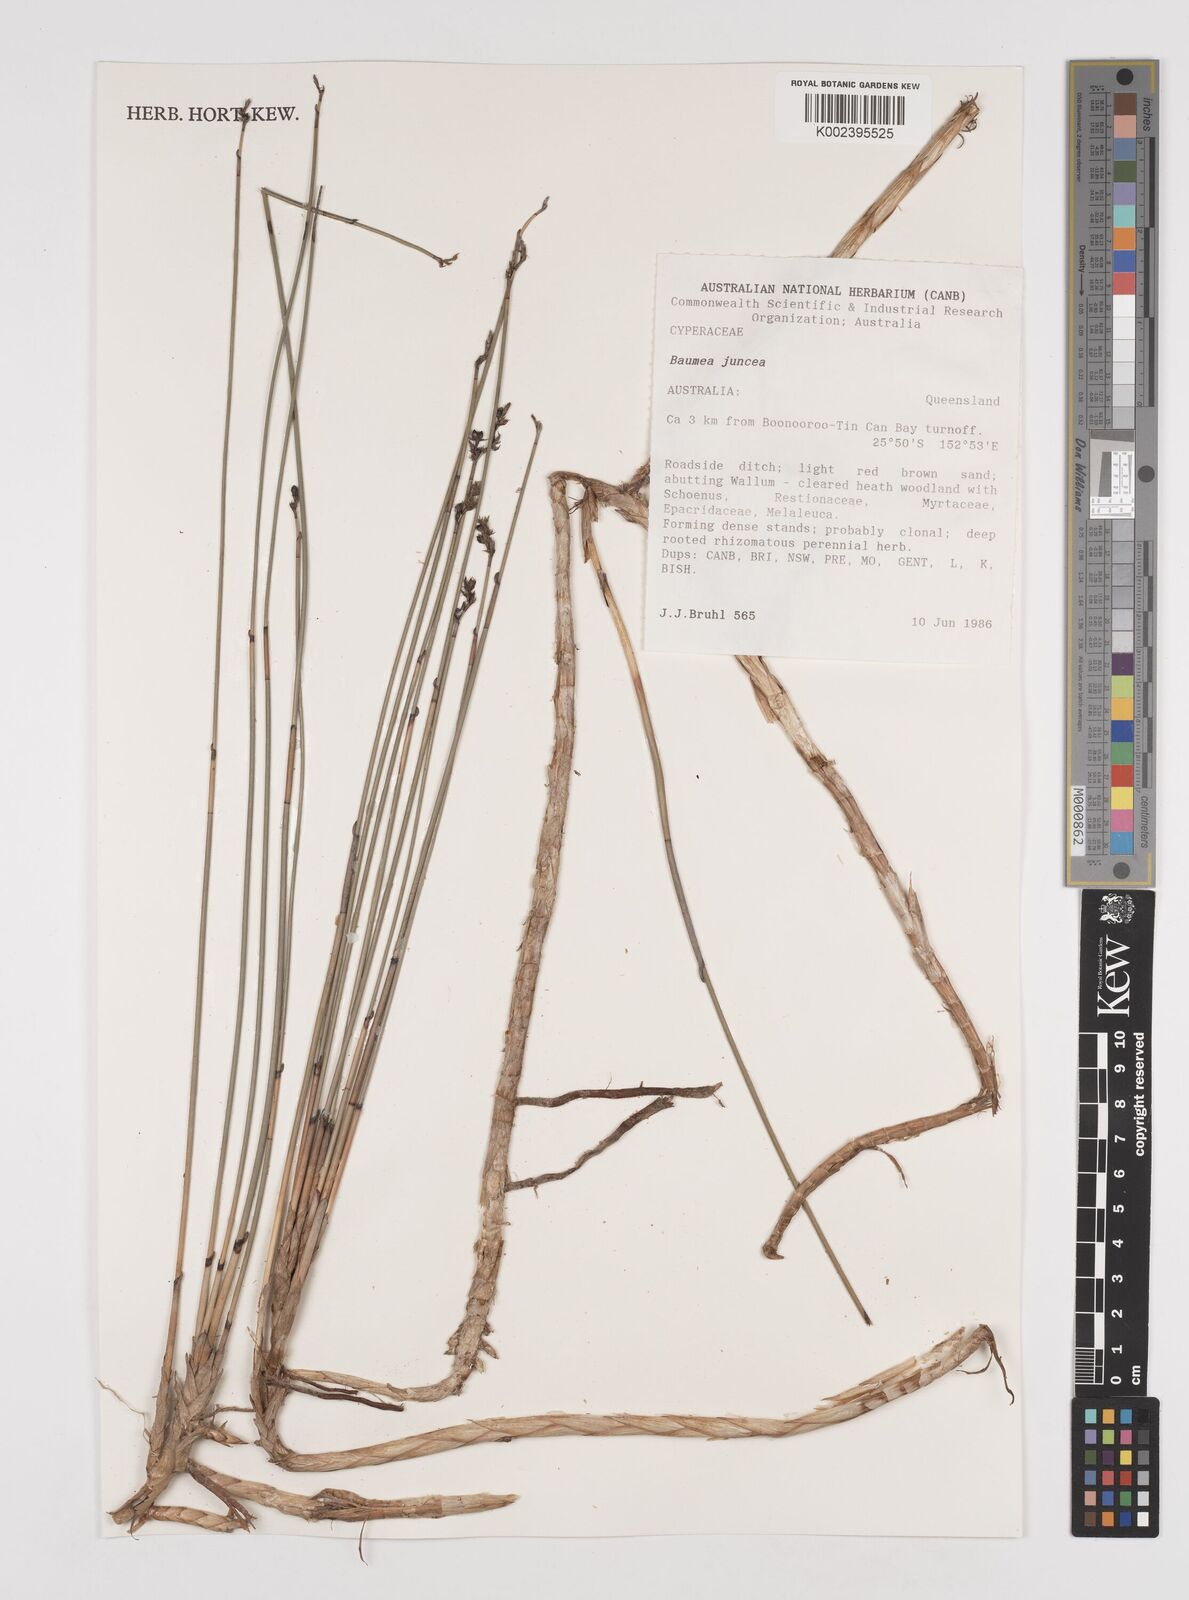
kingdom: Plantae
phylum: Tracheophyta
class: Liliopsida
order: Poales
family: Cyperaceae
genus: Machaerina
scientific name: Machaerina juncea
